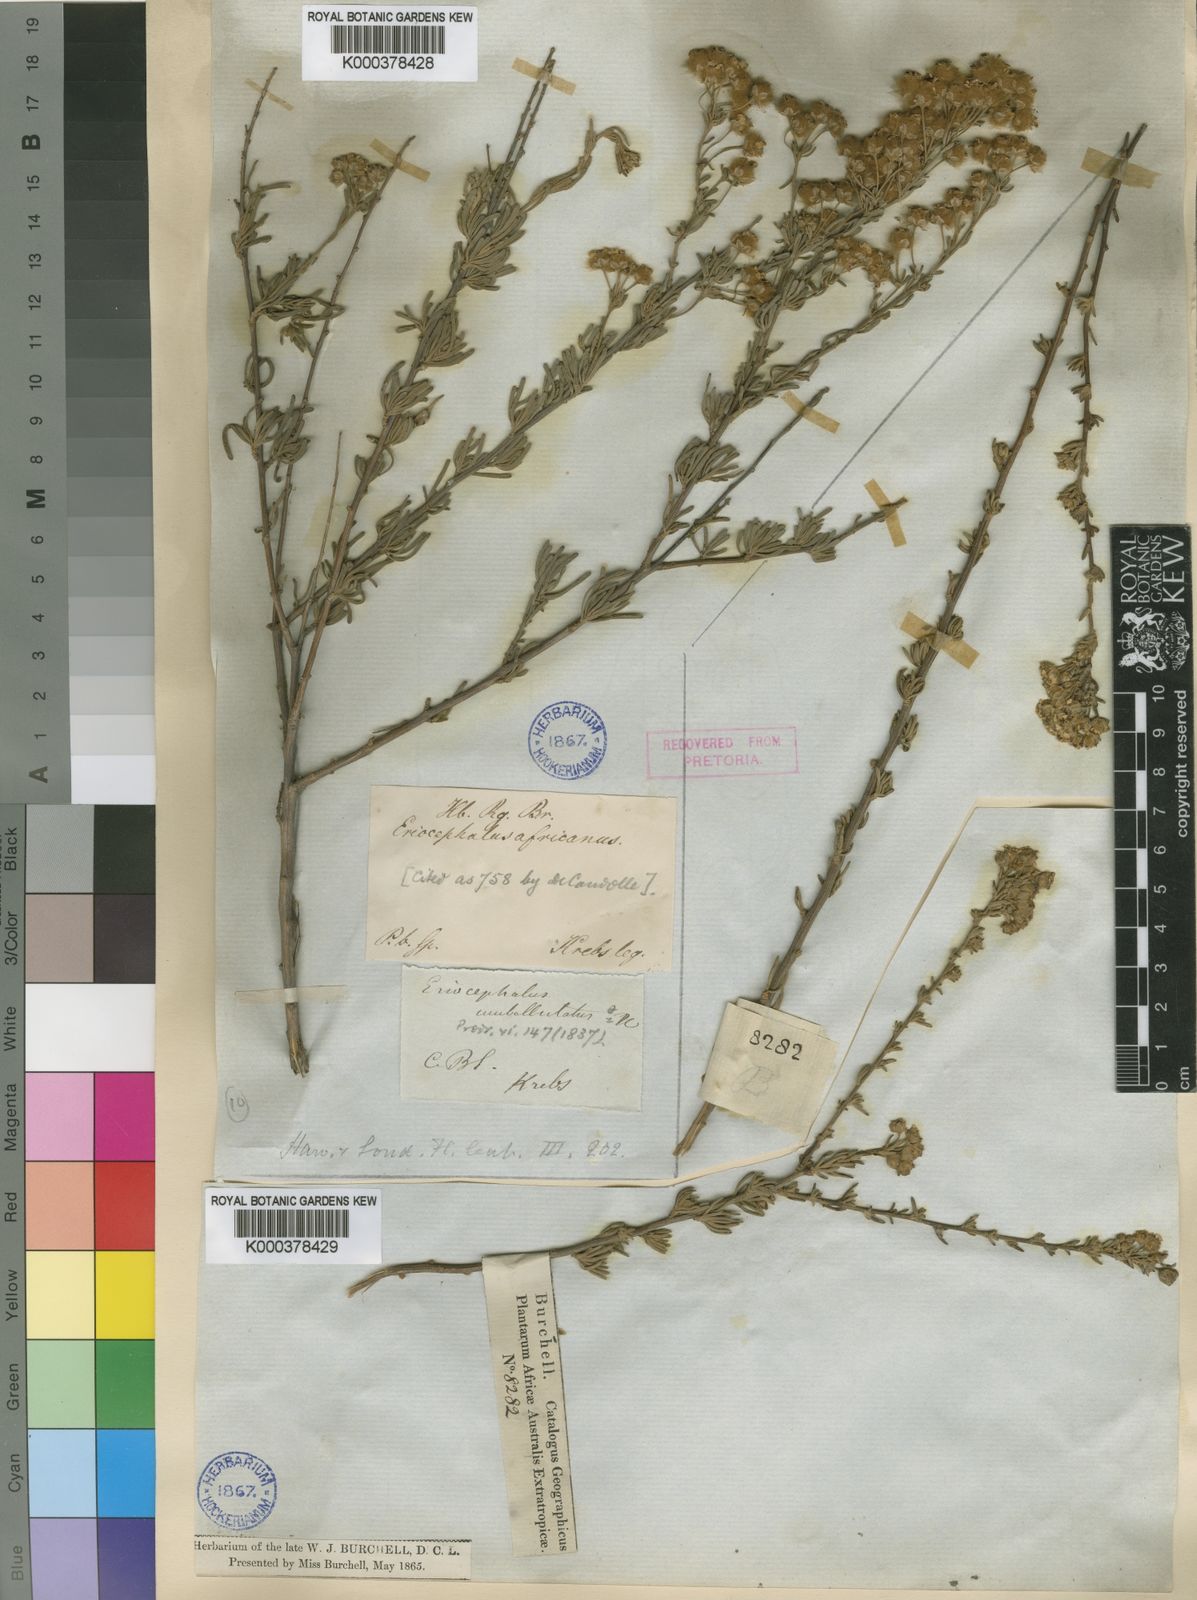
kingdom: Plantae
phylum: Tracheophyta
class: Magnoliopsida
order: Asterales
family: Asteraceae
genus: Eriocephalus
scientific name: Eriocephalus
